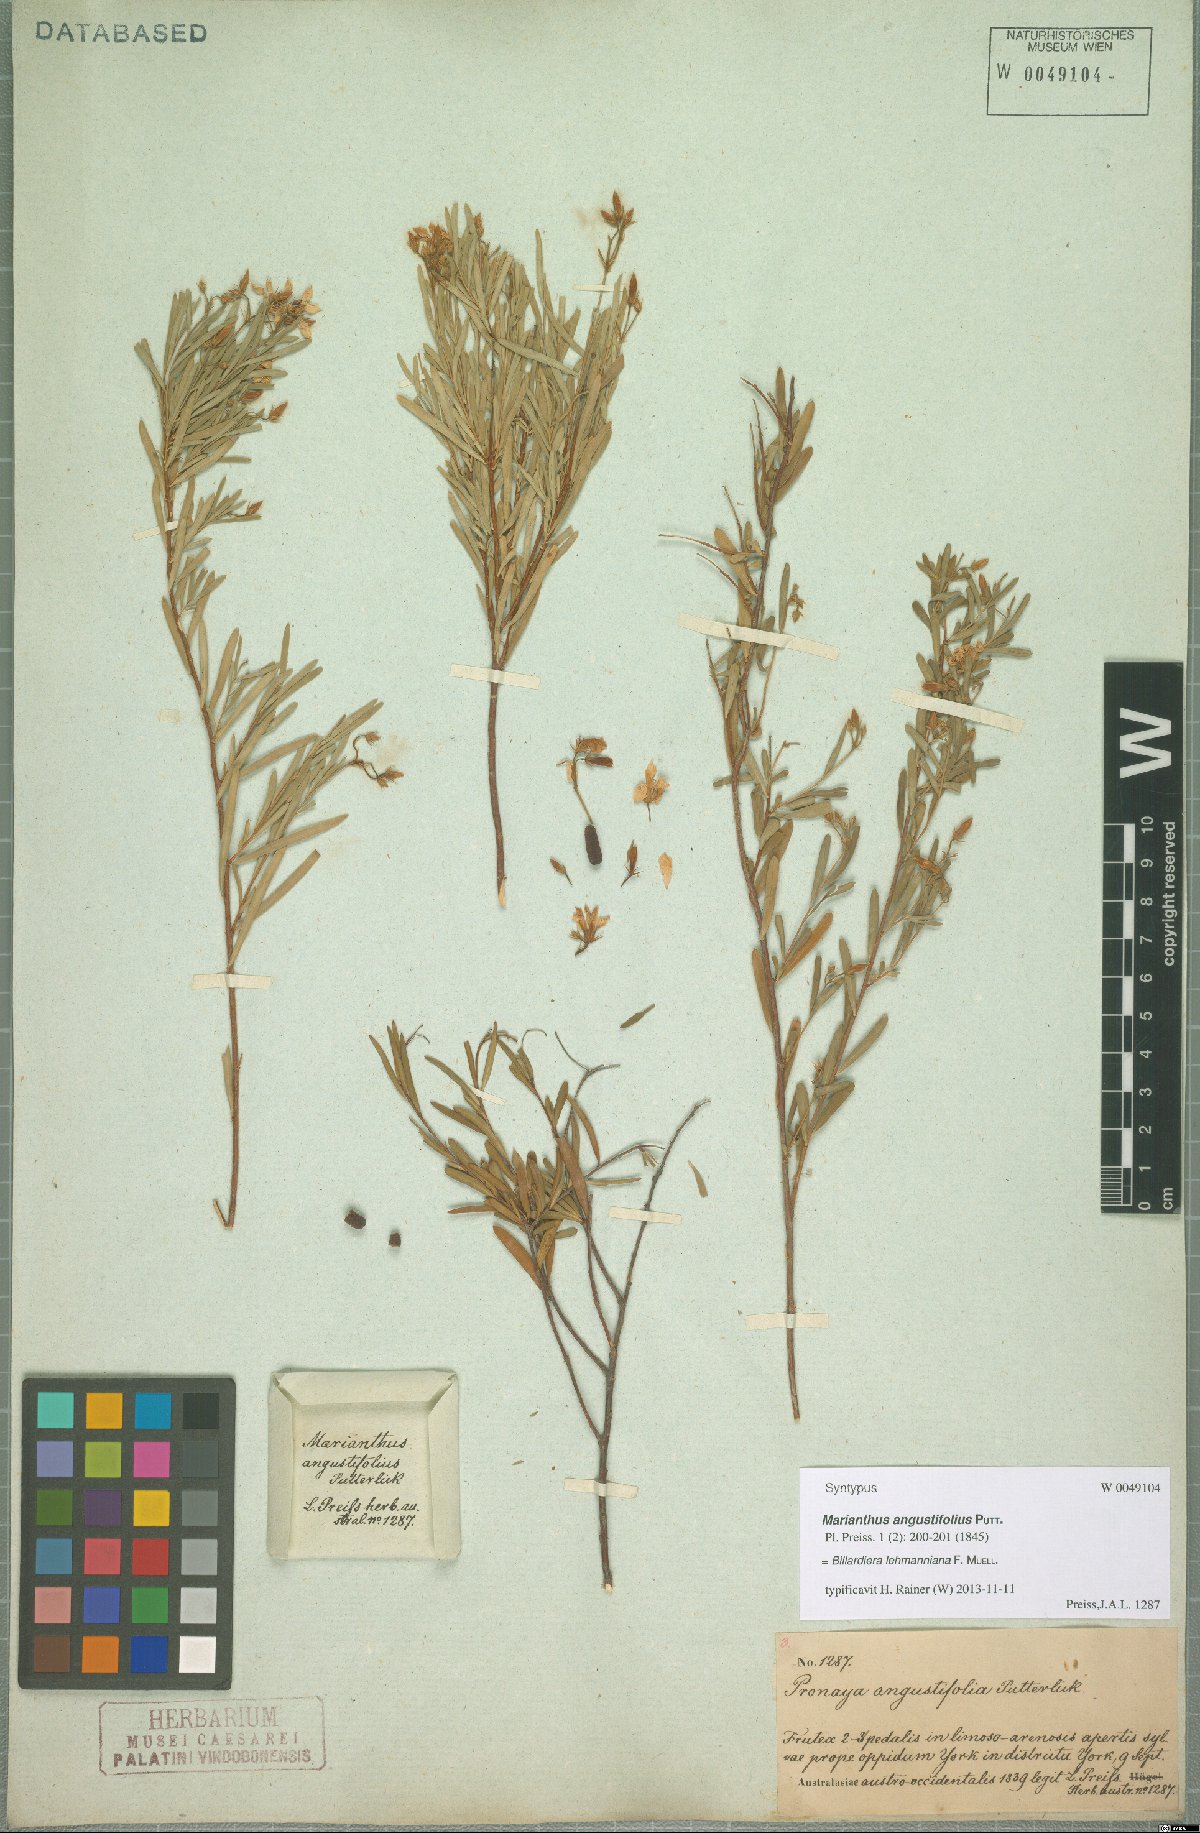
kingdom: Plantae
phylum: Tracheophyta
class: Magnoliopsida
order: Apiales
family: Pittosporaceae
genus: Billardiera
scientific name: Billardiera lehmanniana
